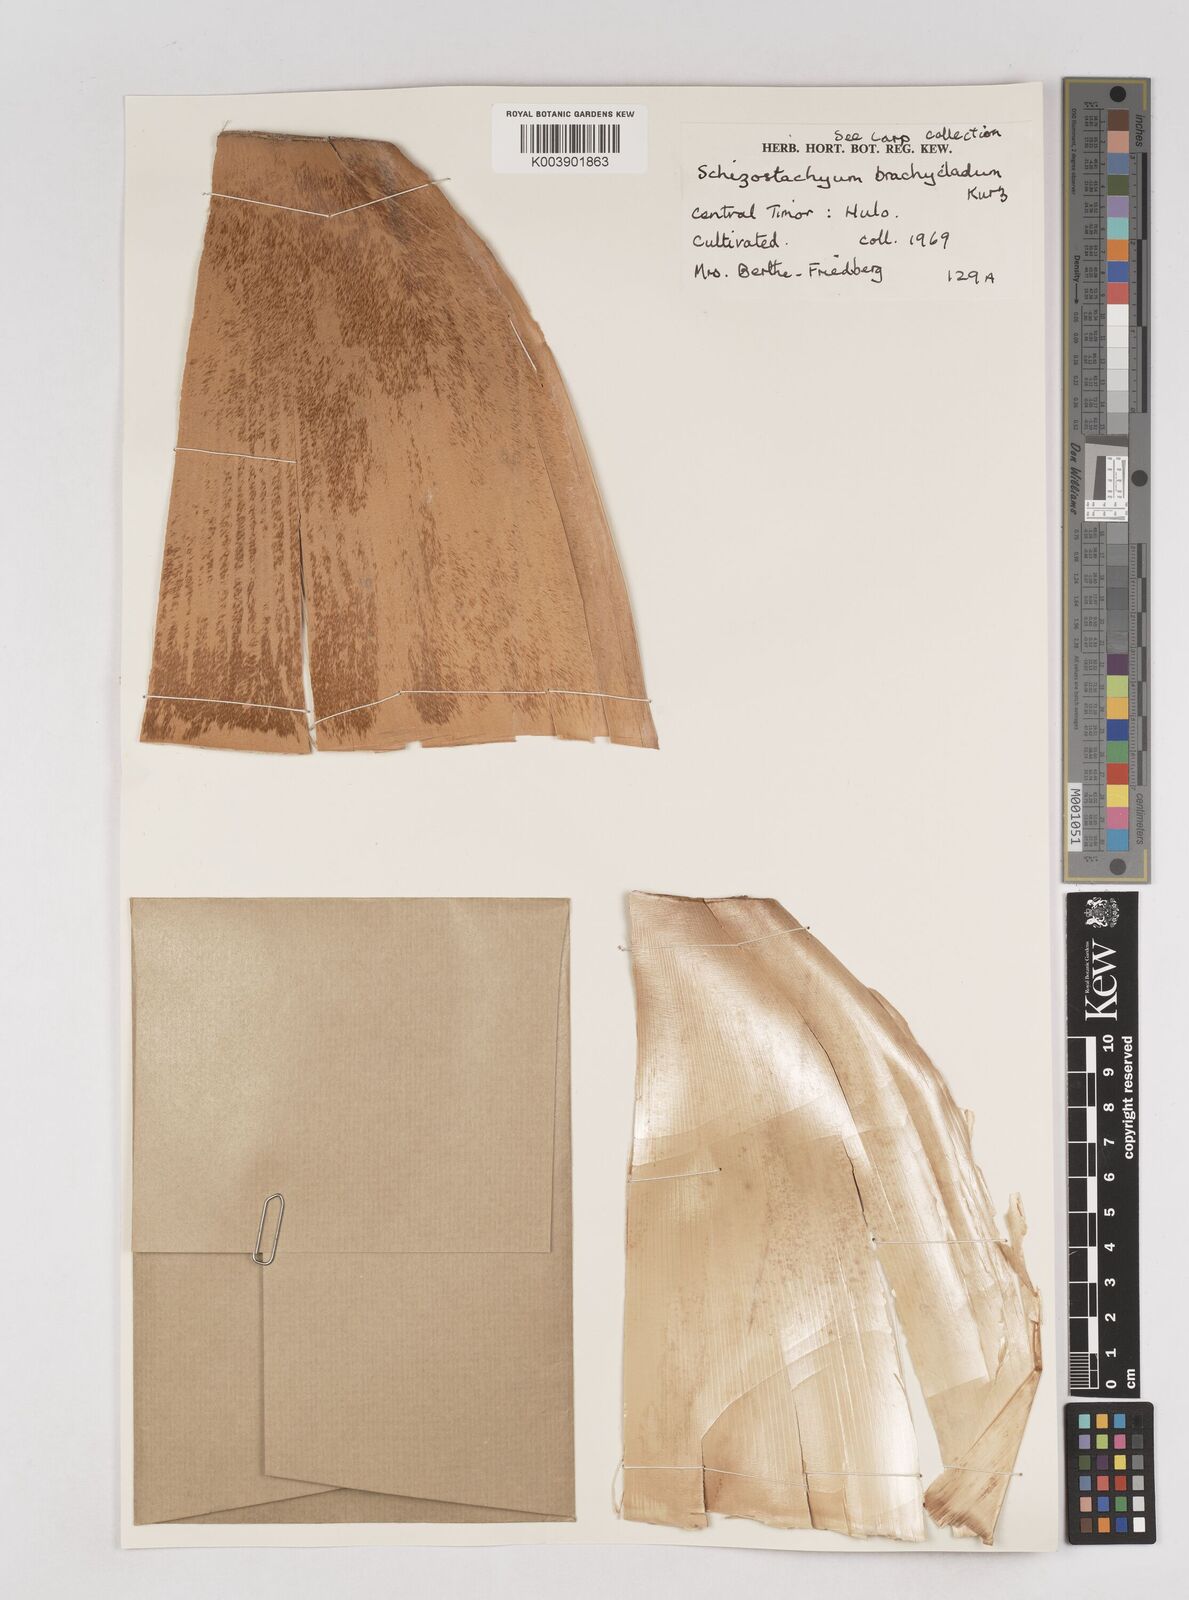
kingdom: Plantae
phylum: Tracheophyta
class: Liliopsida
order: Poales
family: Poaceae
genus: Schizostachyum
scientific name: Schizostachyum brachycladum
